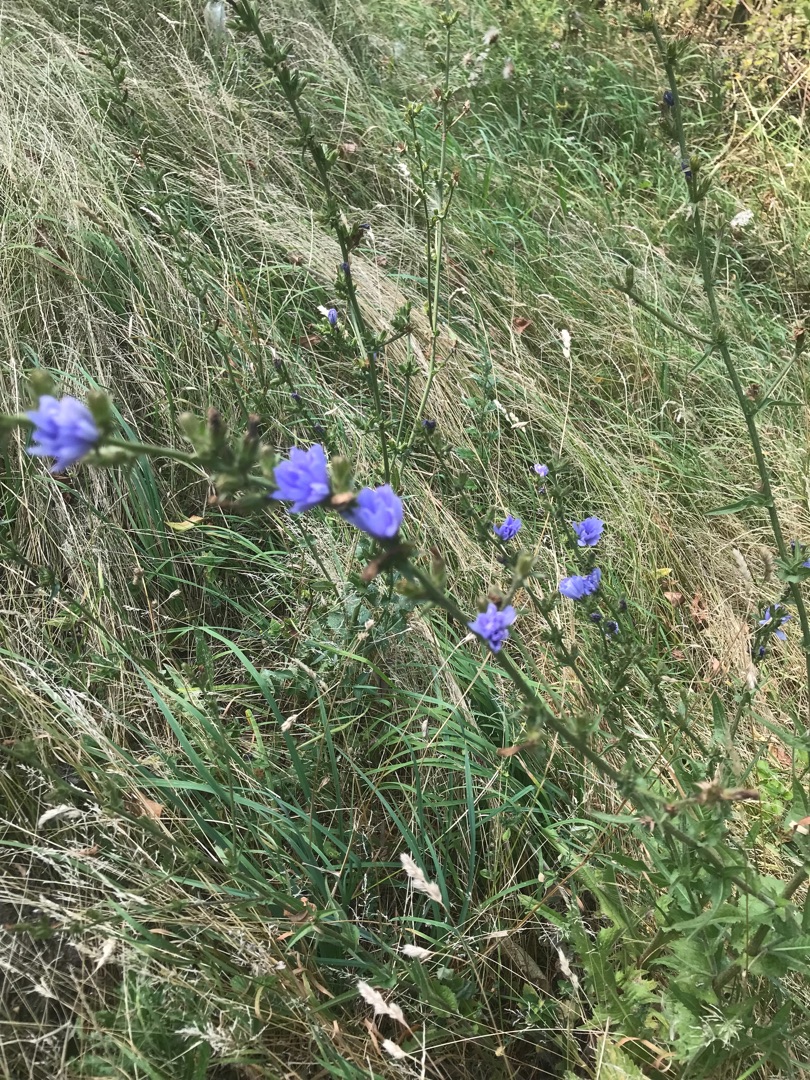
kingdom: Plantae
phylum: Tracheophyta
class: Magnoliopsida
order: Asterales
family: Asteraceae
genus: Cichorium
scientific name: Cichorium intybus
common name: Cikorie
